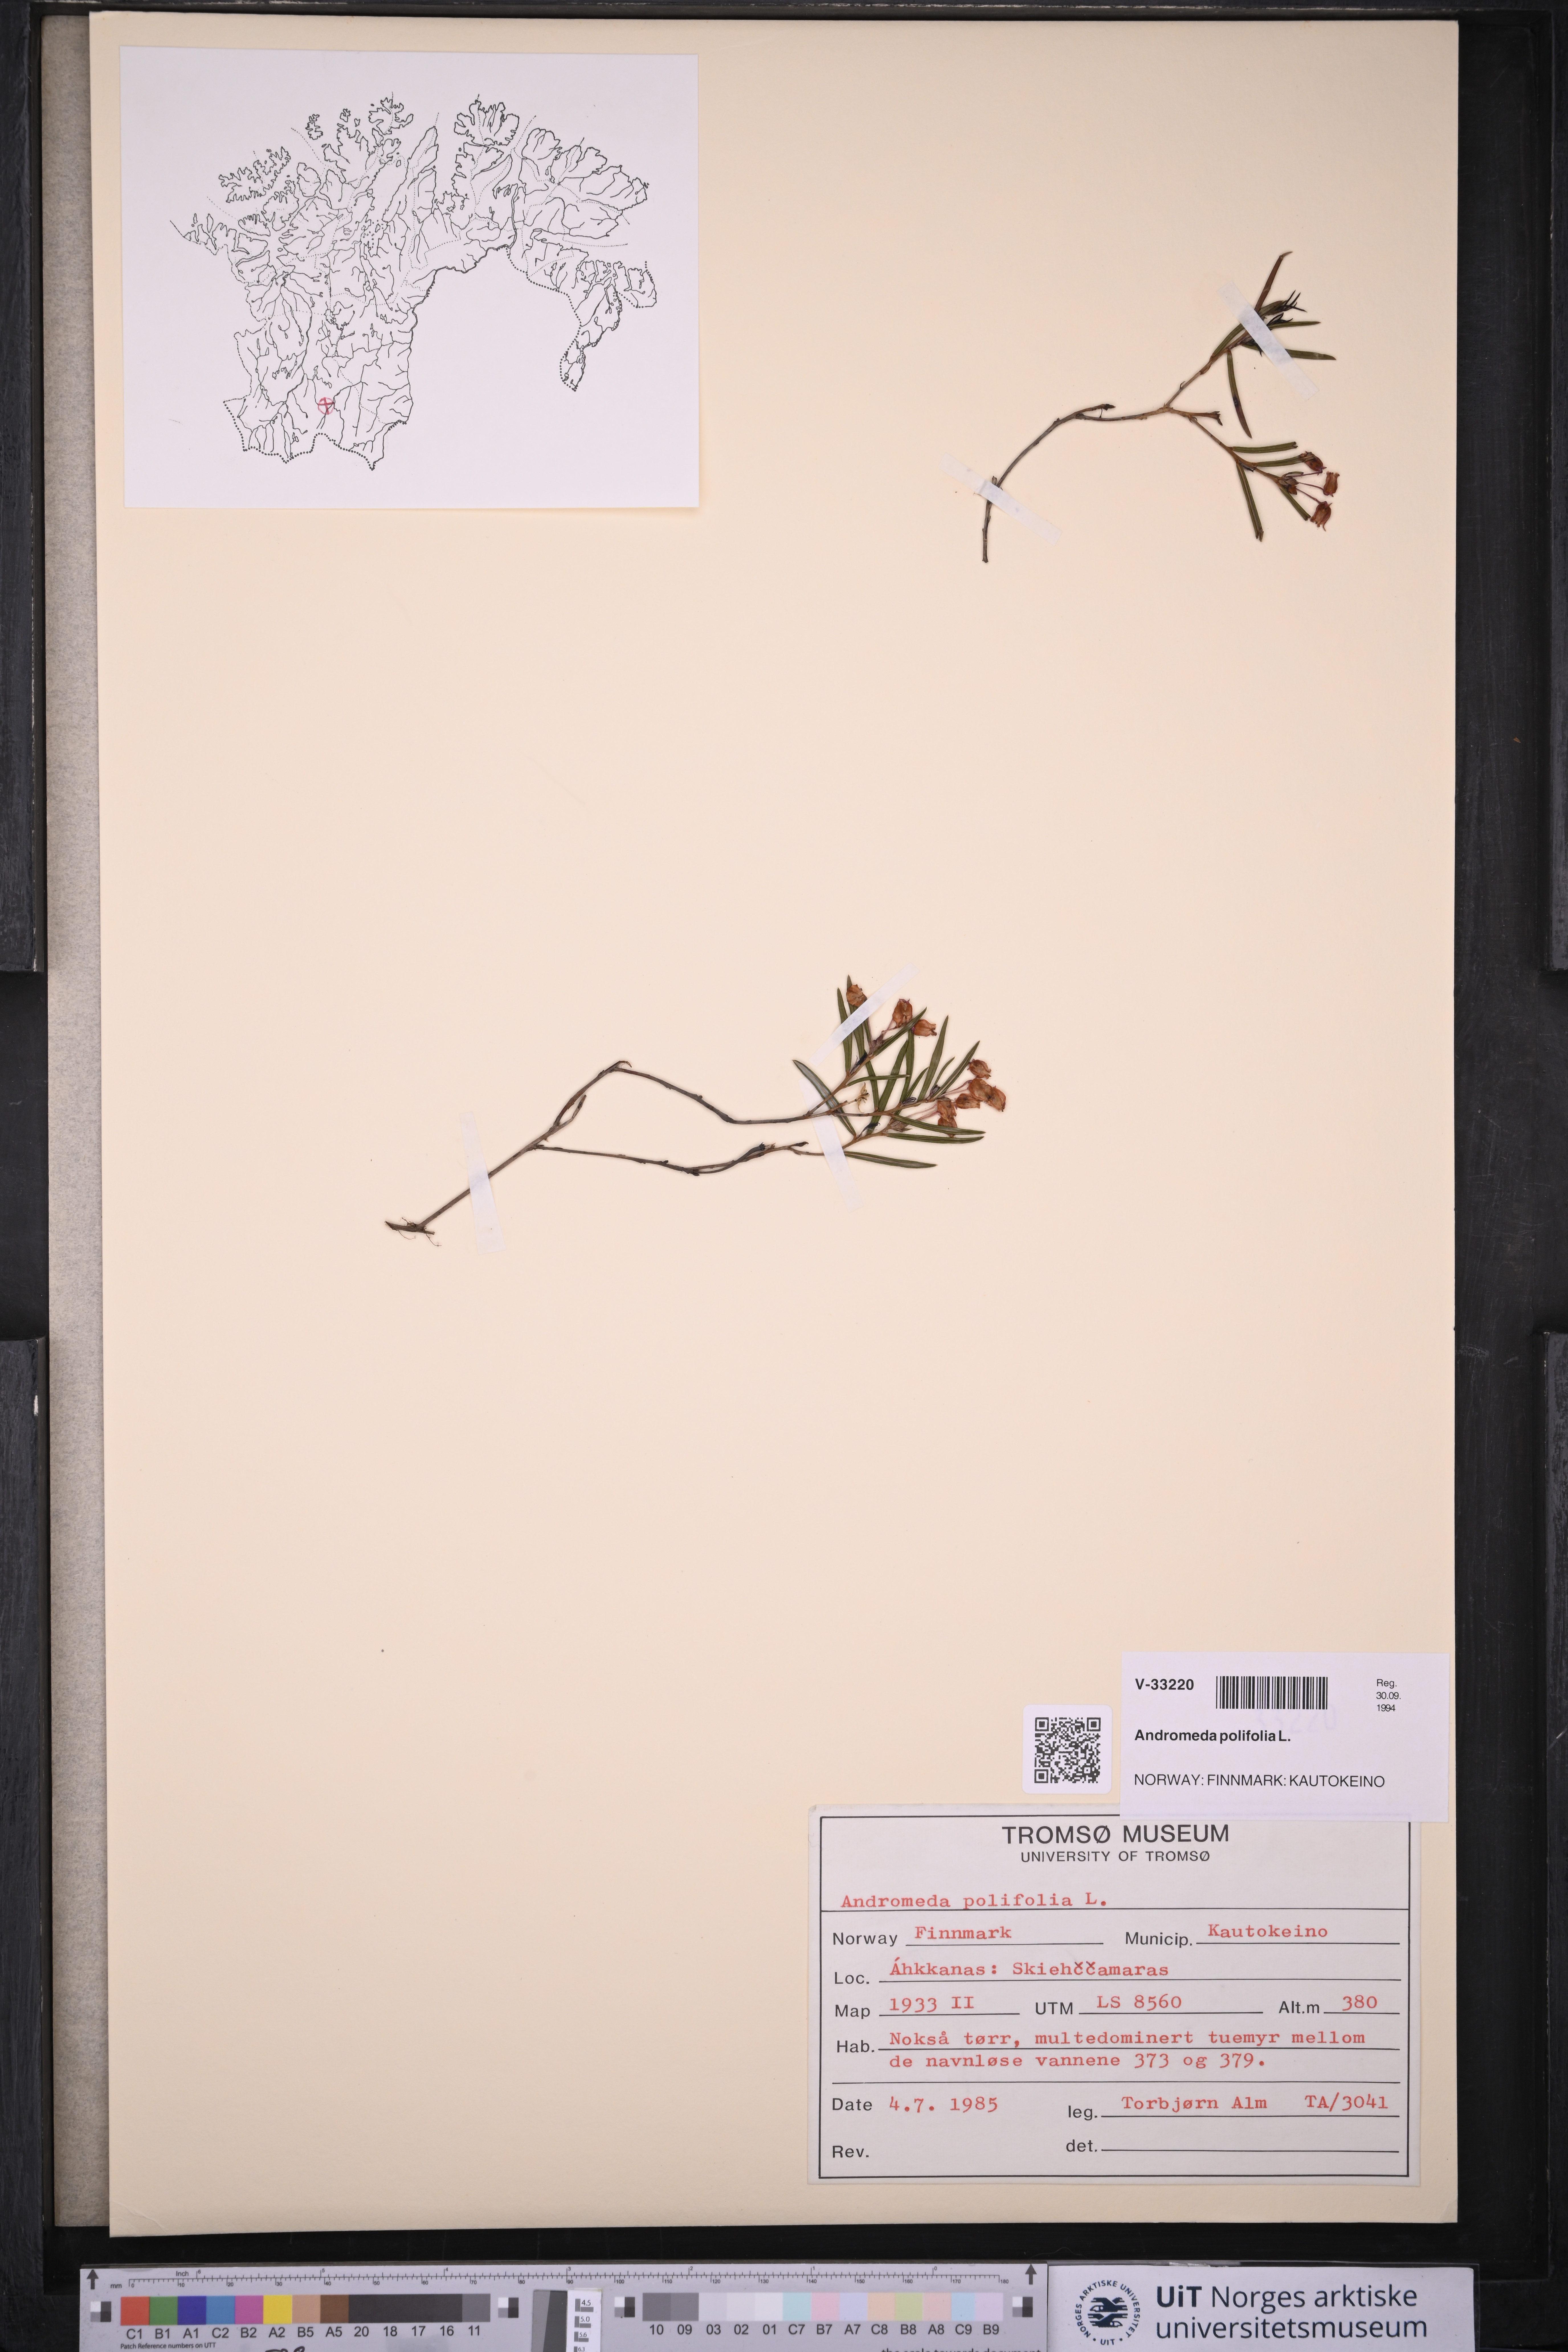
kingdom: Plantae
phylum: Tracheophyta
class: Magnoliopsida
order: Ericales
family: Ericaceae
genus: Andromeda
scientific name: Andromeda polifolia
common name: Bog-rosemary
